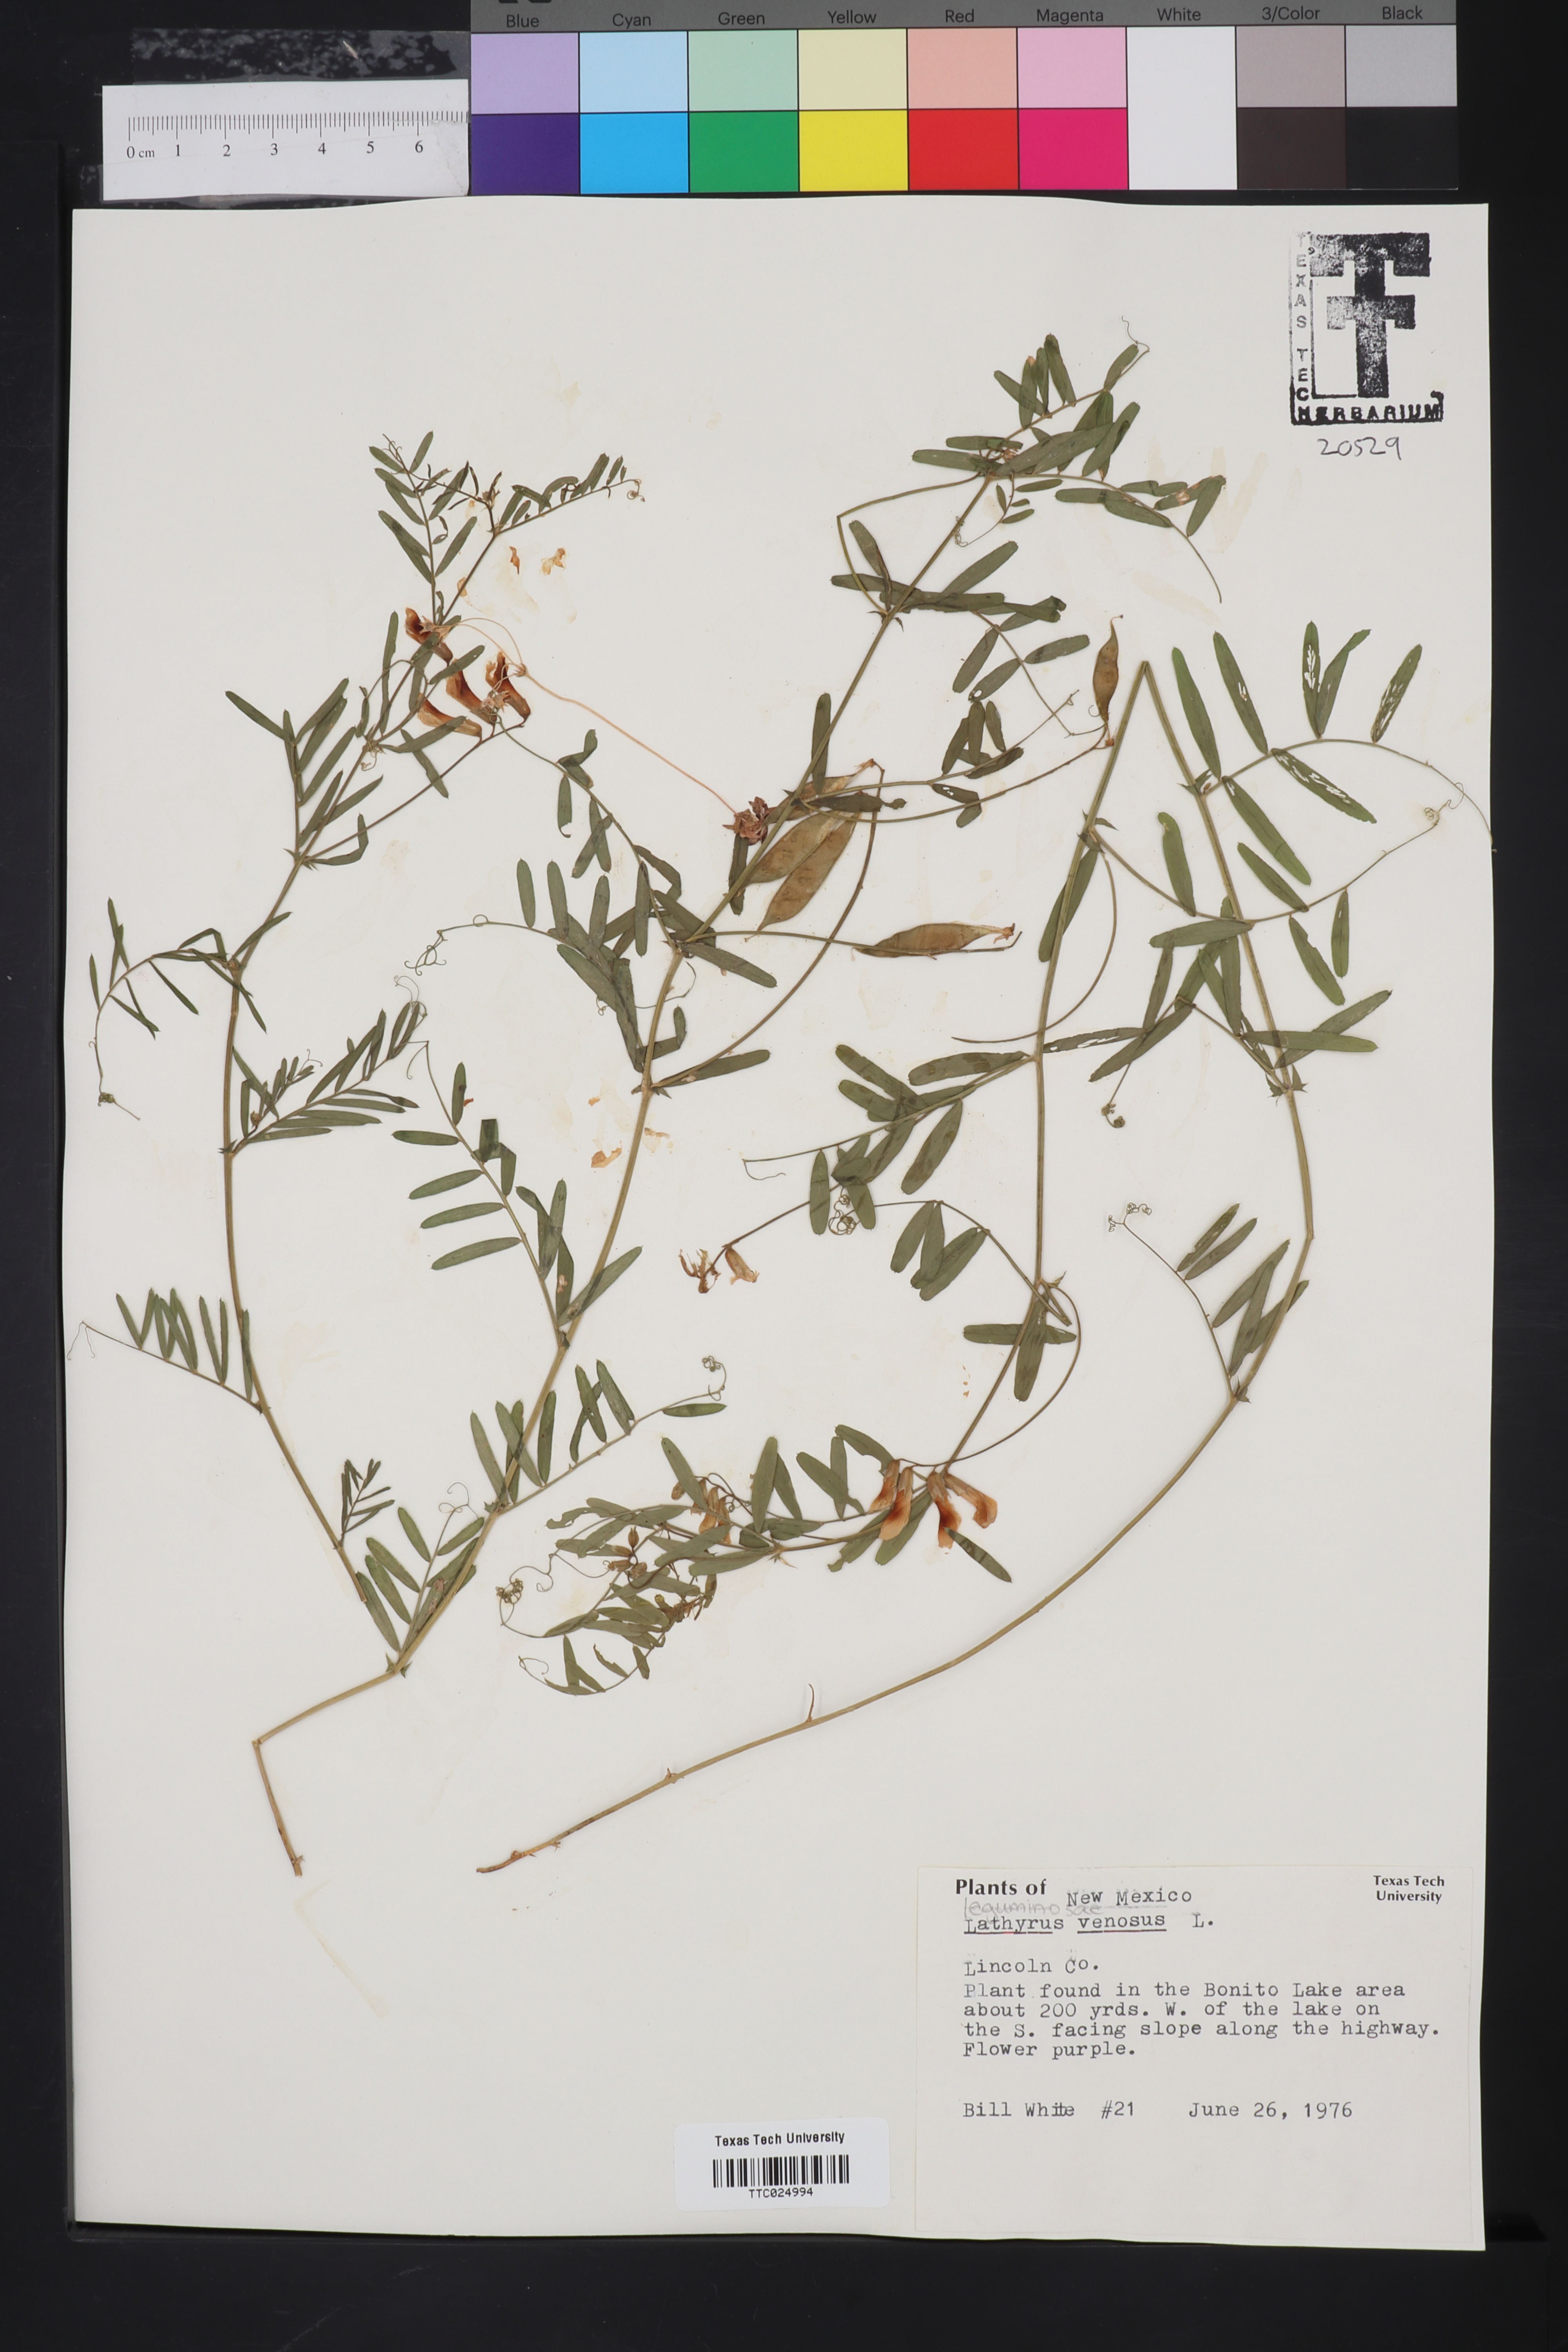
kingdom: Plantae
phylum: Tracheophyta
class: Magnoliopsida
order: Fabales
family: Fabaceae
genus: Lathyrus
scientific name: Lathyrus venosus
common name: Forest-pea
